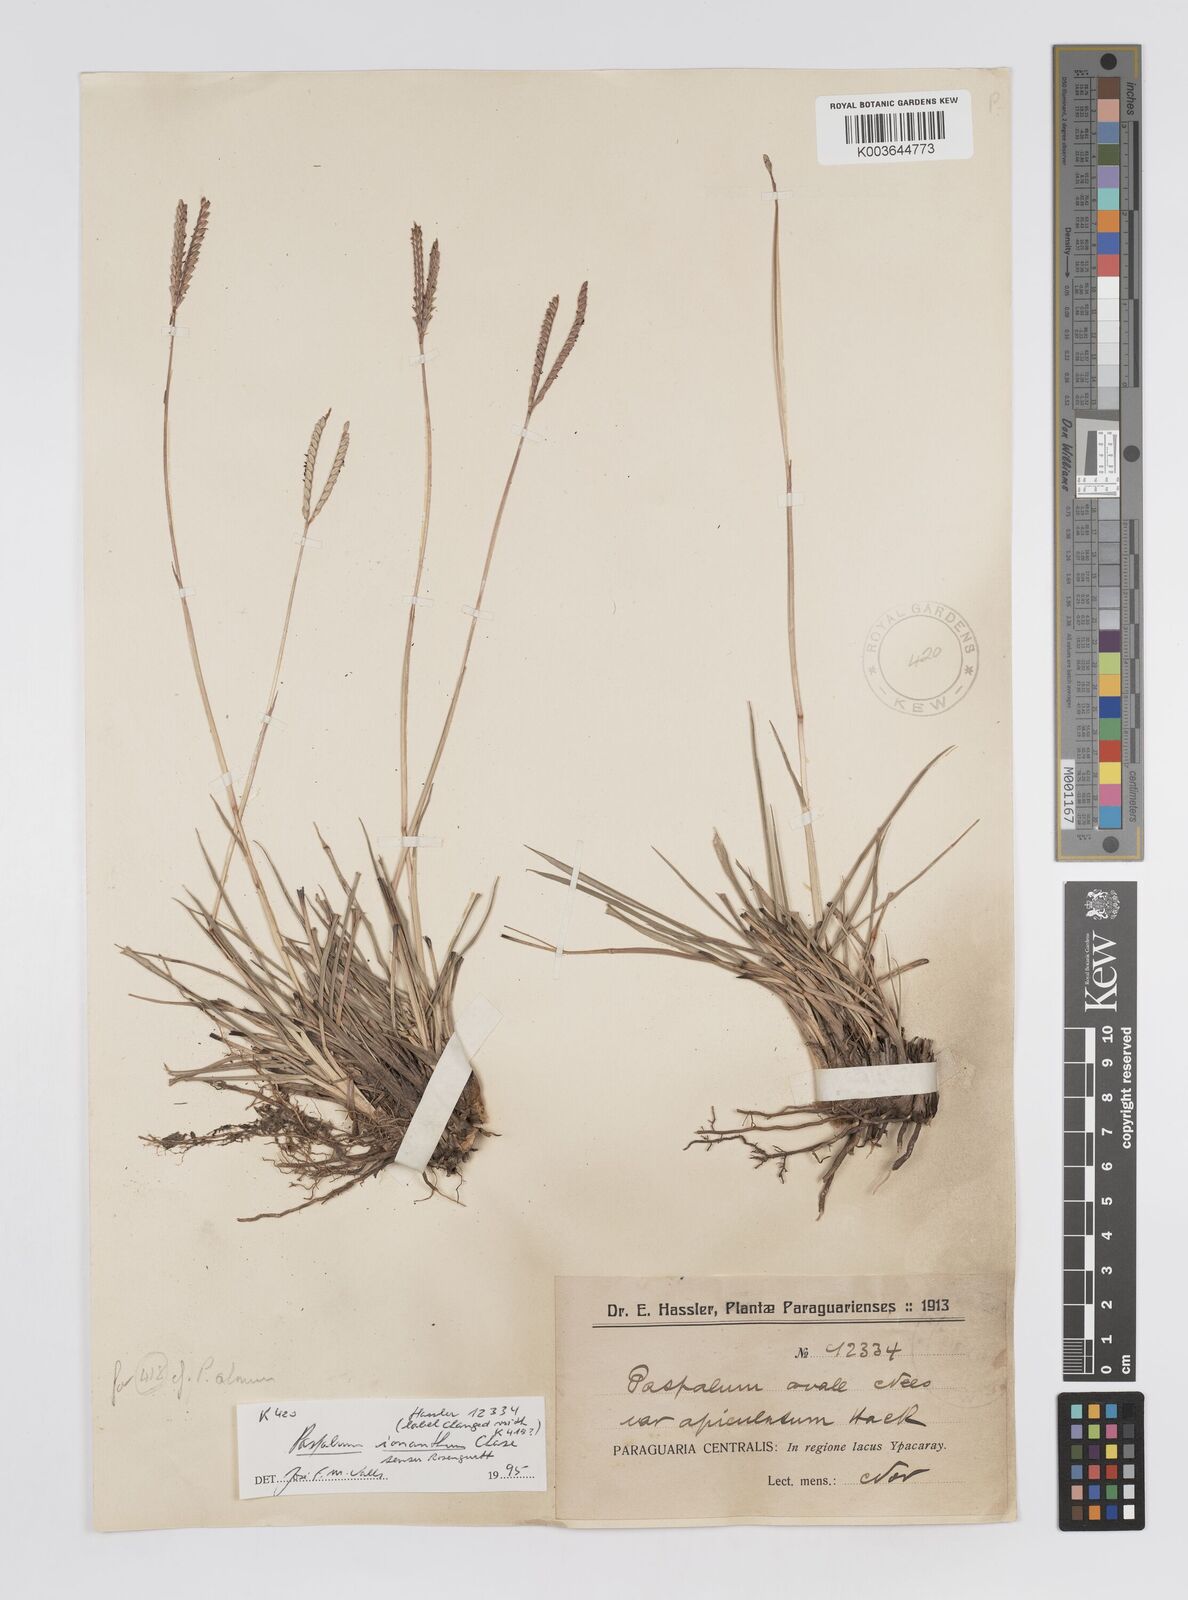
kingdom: Plantae
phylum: Tracheophyta
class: Liliopsida
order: Poales
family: Poaceae
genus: Paspalum
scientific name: Paspalum erianthum
